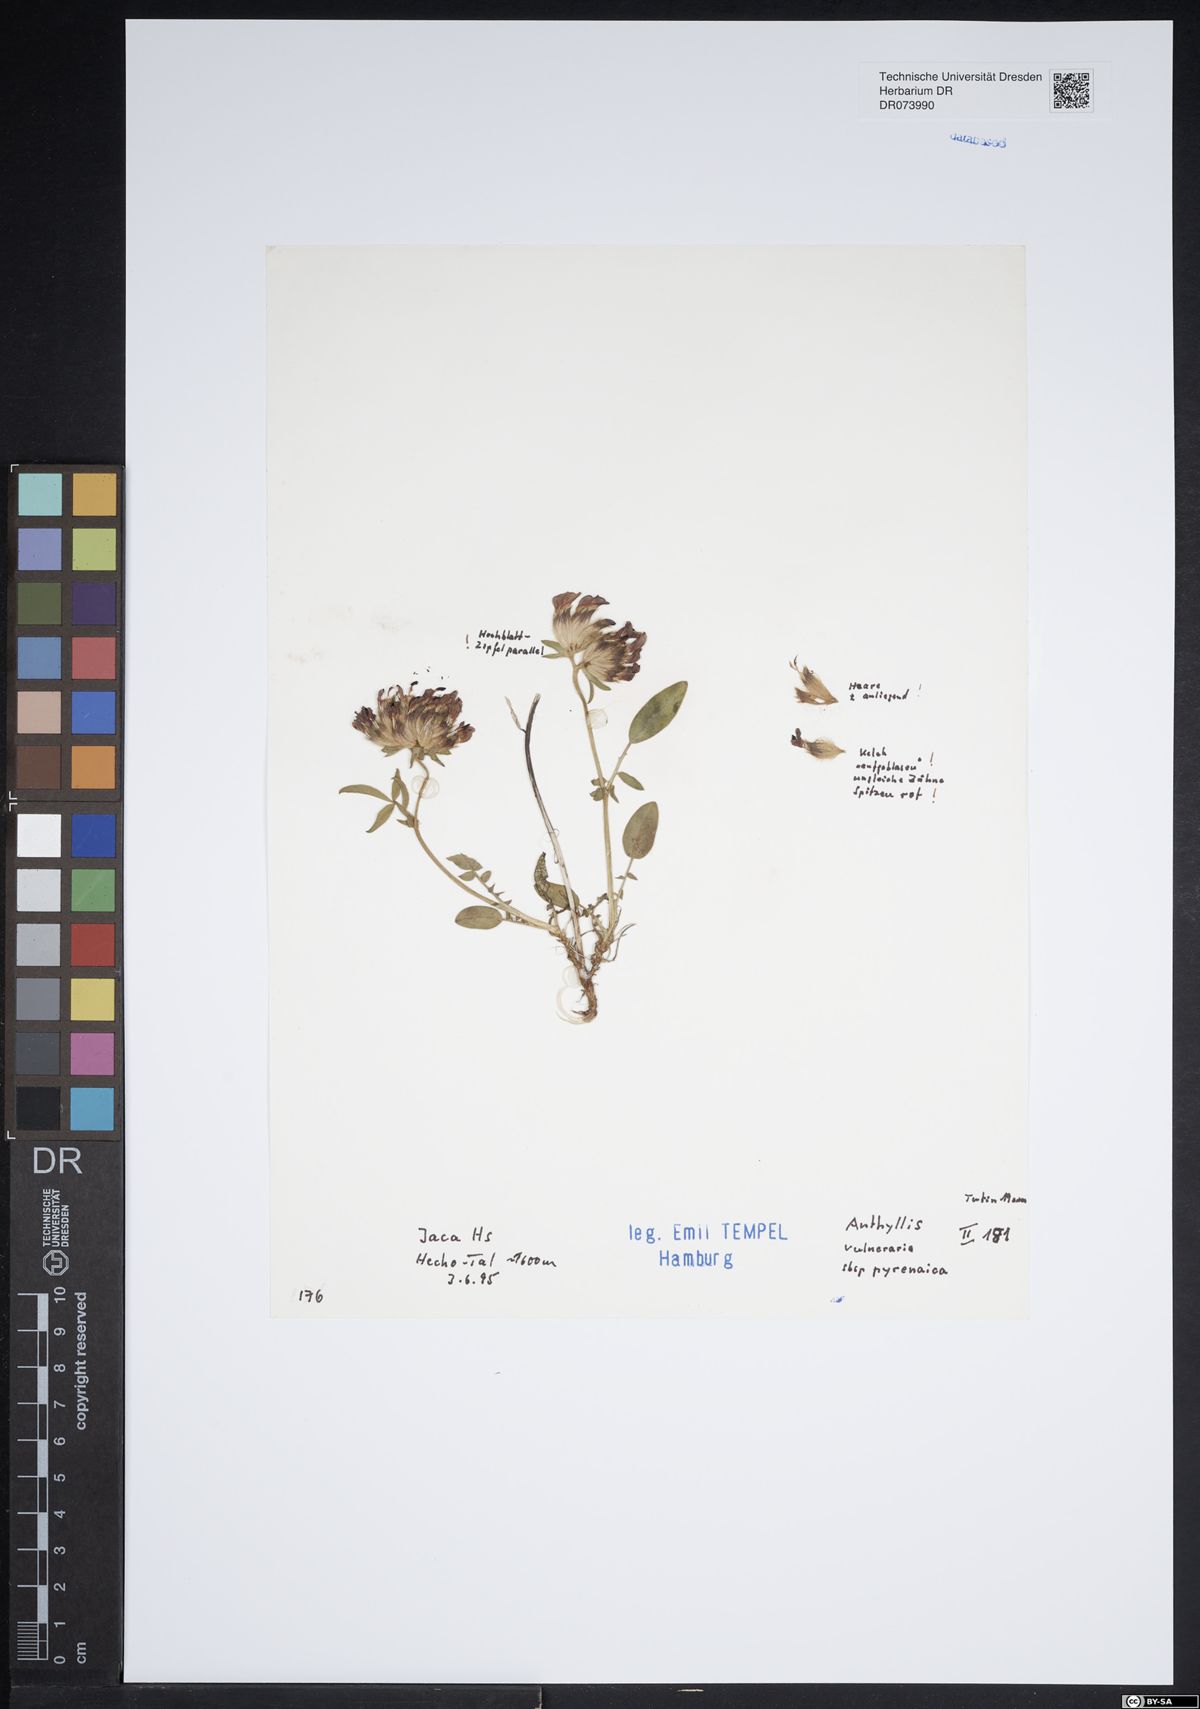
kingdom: Plantae
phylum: Tracheophyta
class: Magnoliopsida
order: Fabales
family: Fabaceae
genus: Anthyllis
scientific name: Anthyllis vulneraria
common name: Kidney vetch
